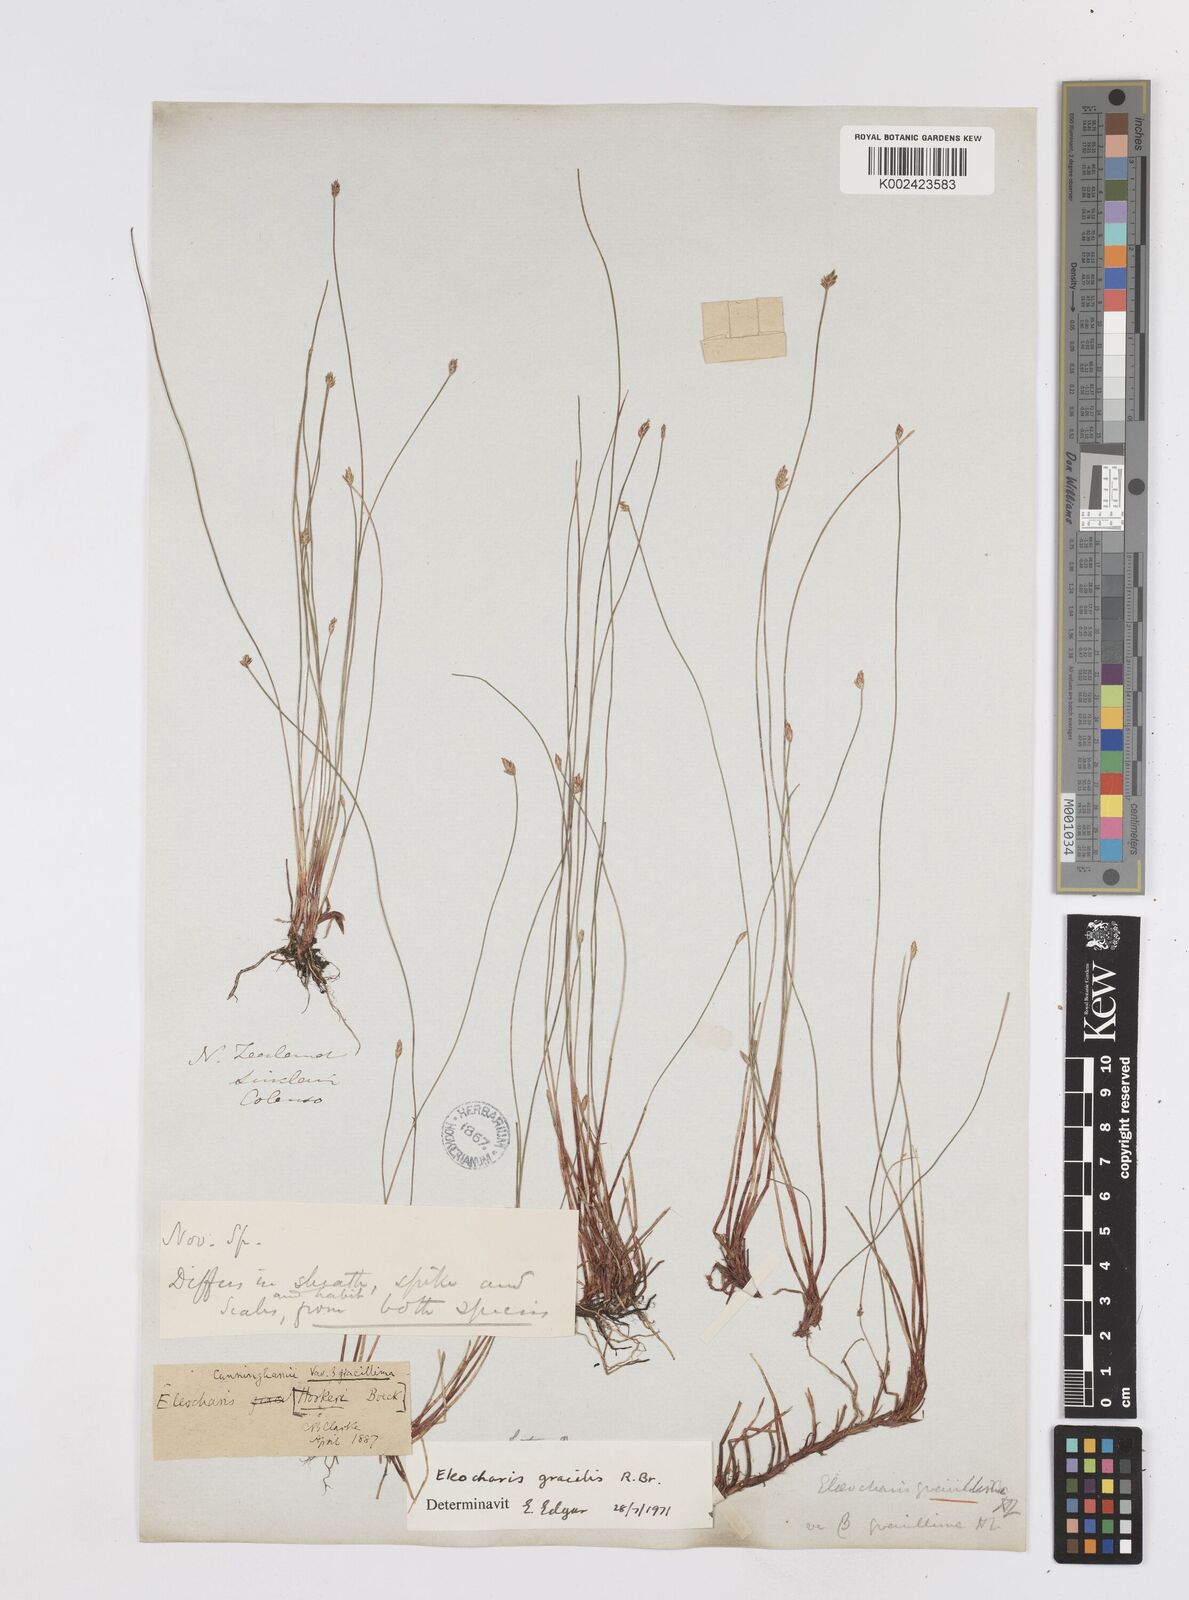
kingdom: Plantae
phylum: Tracheophyta
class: Liliopsida
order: Poales
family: Cyperaceae
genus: Eleocharis
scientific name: Eleocharis gracilis
